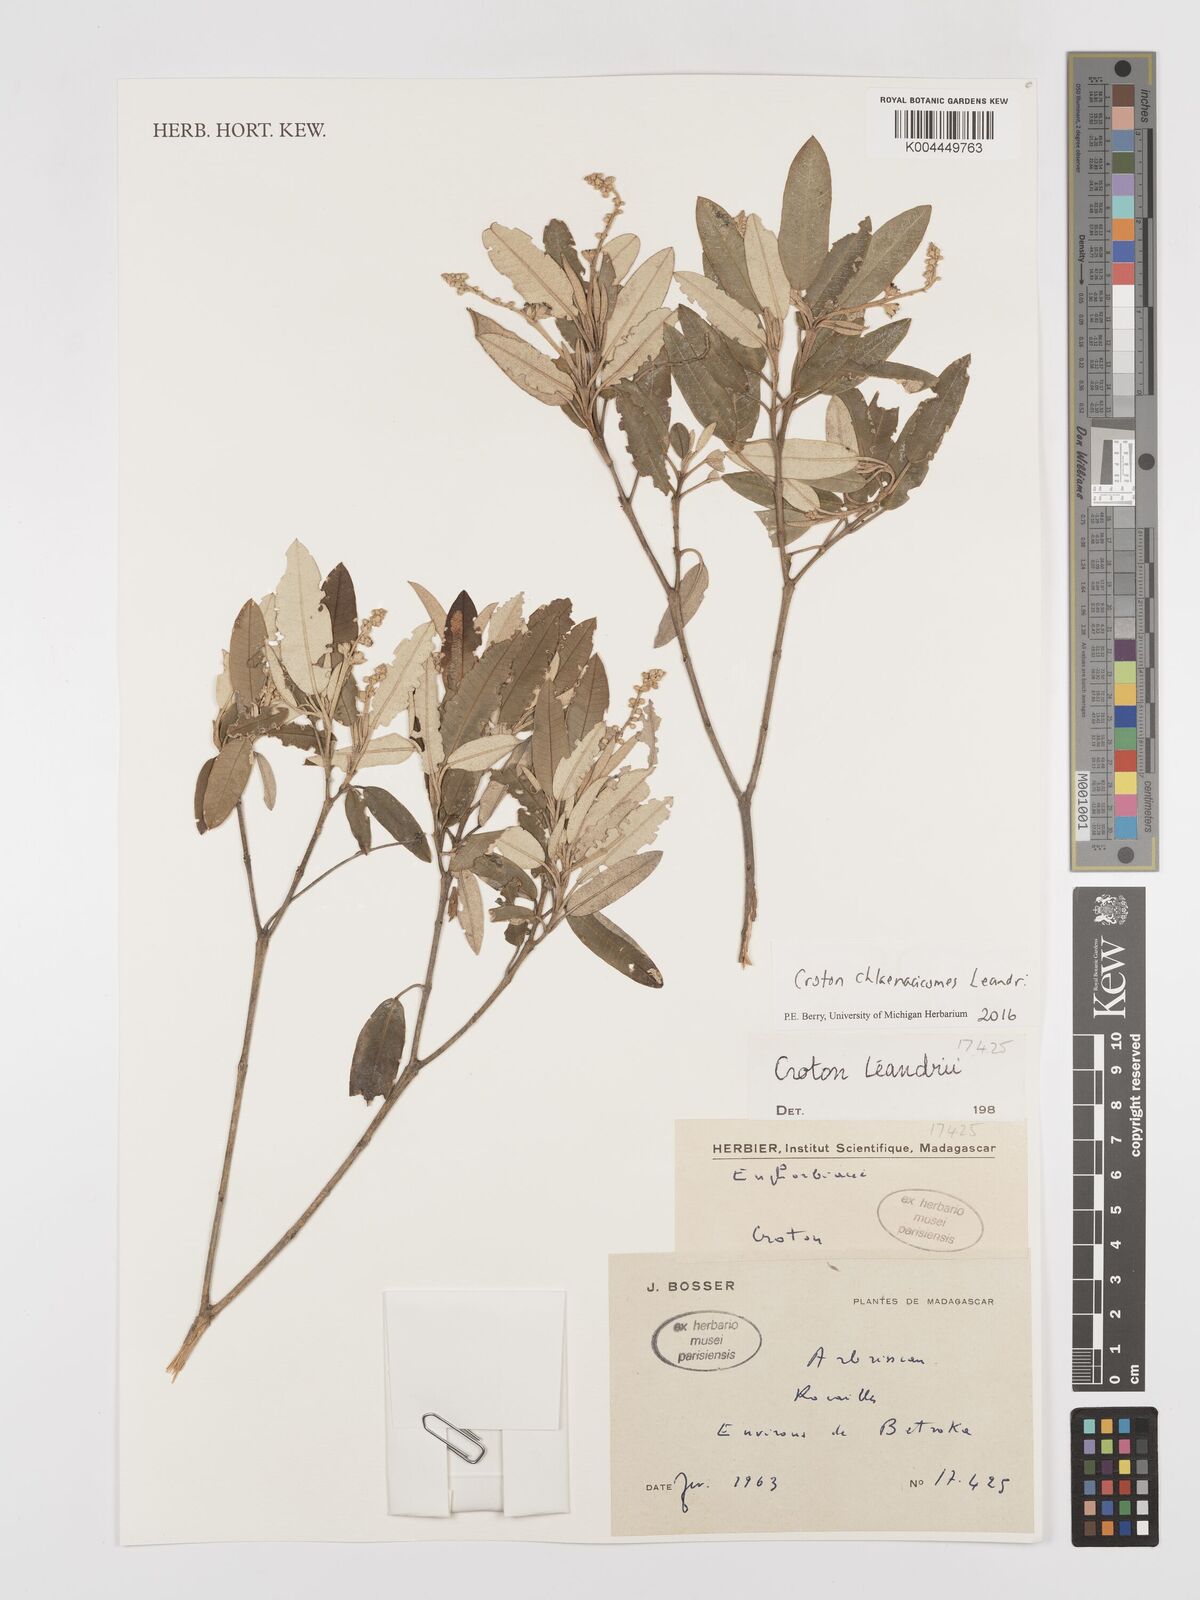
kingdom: Plantae
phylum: Tracheophyta
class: Magnoliopsida
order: Malpighiales
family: Euphorbiaceae
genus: Croton
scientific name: Croton chlaenacicomes
